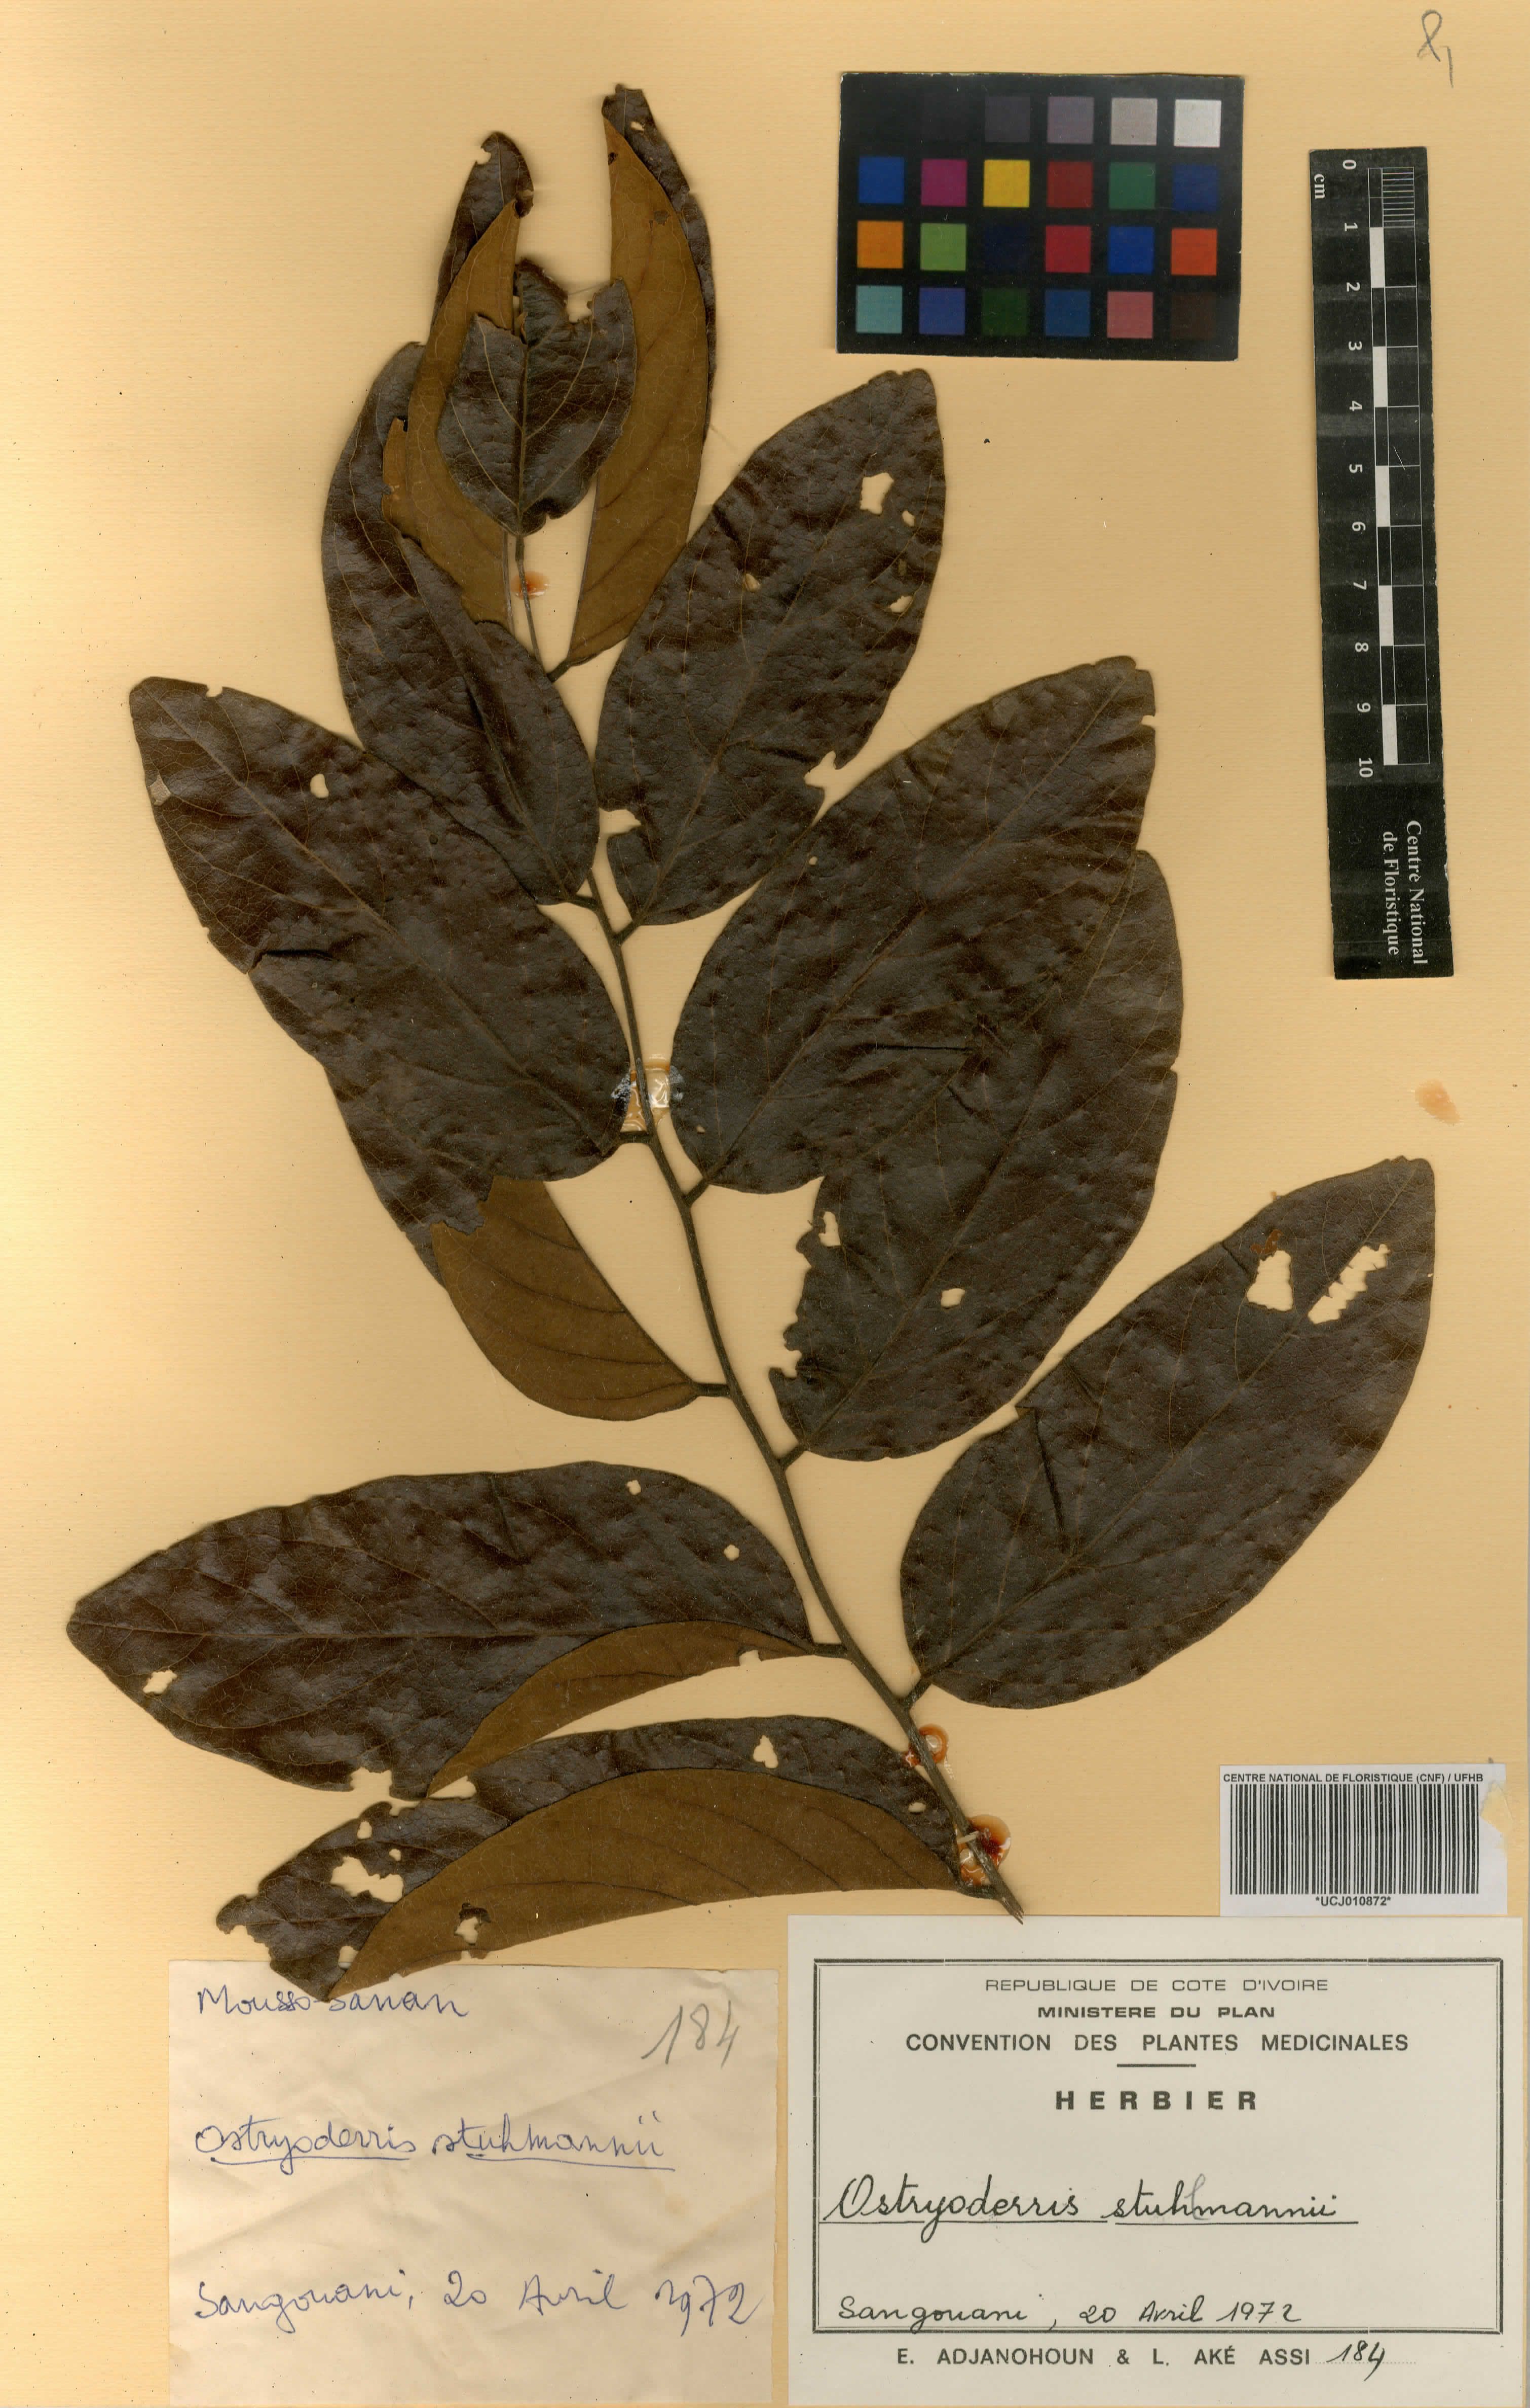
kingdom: Plantae
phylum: Tracheophyta
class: Magnoliopsida
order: Fabales
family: Fabaceae
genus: Aganope
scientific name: Aganope stuhlmannii
